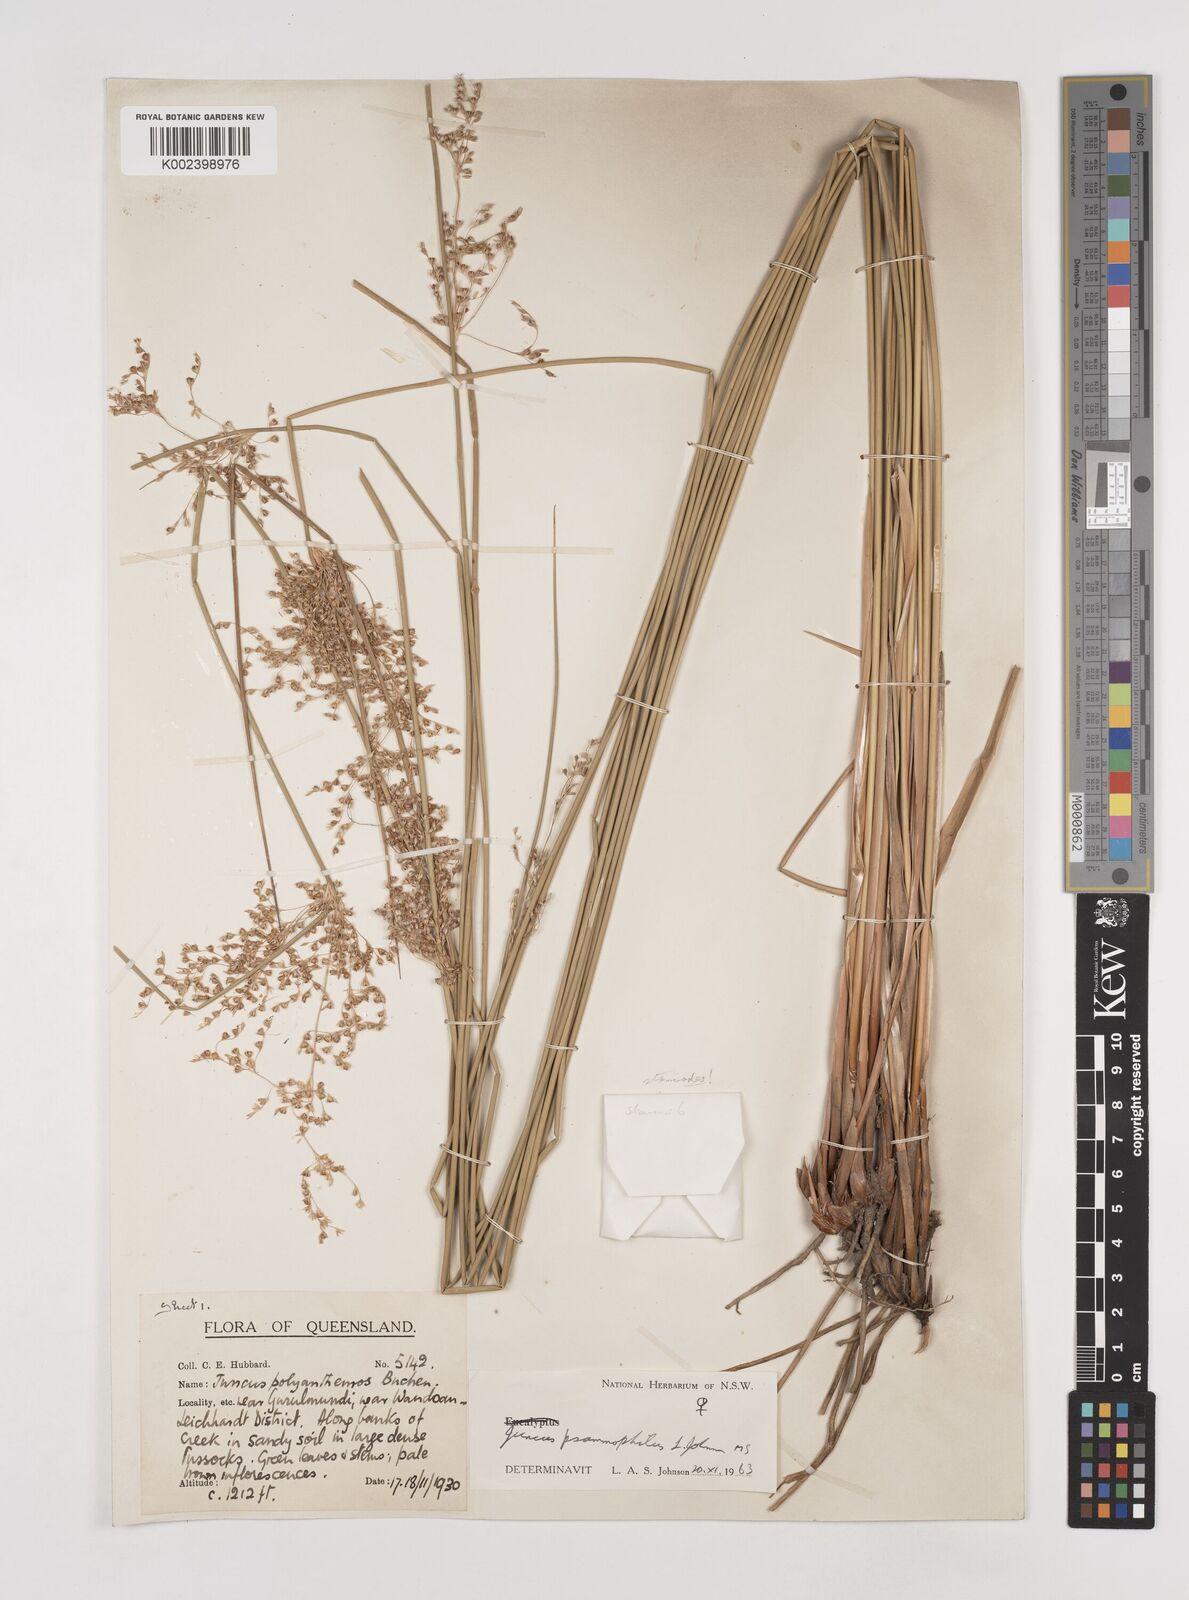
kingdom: Plantae
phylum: Tracheophyta
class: Liliopsida
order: Poales
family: Juncaceae
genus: Juncus
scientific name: Juncus psammophilus
